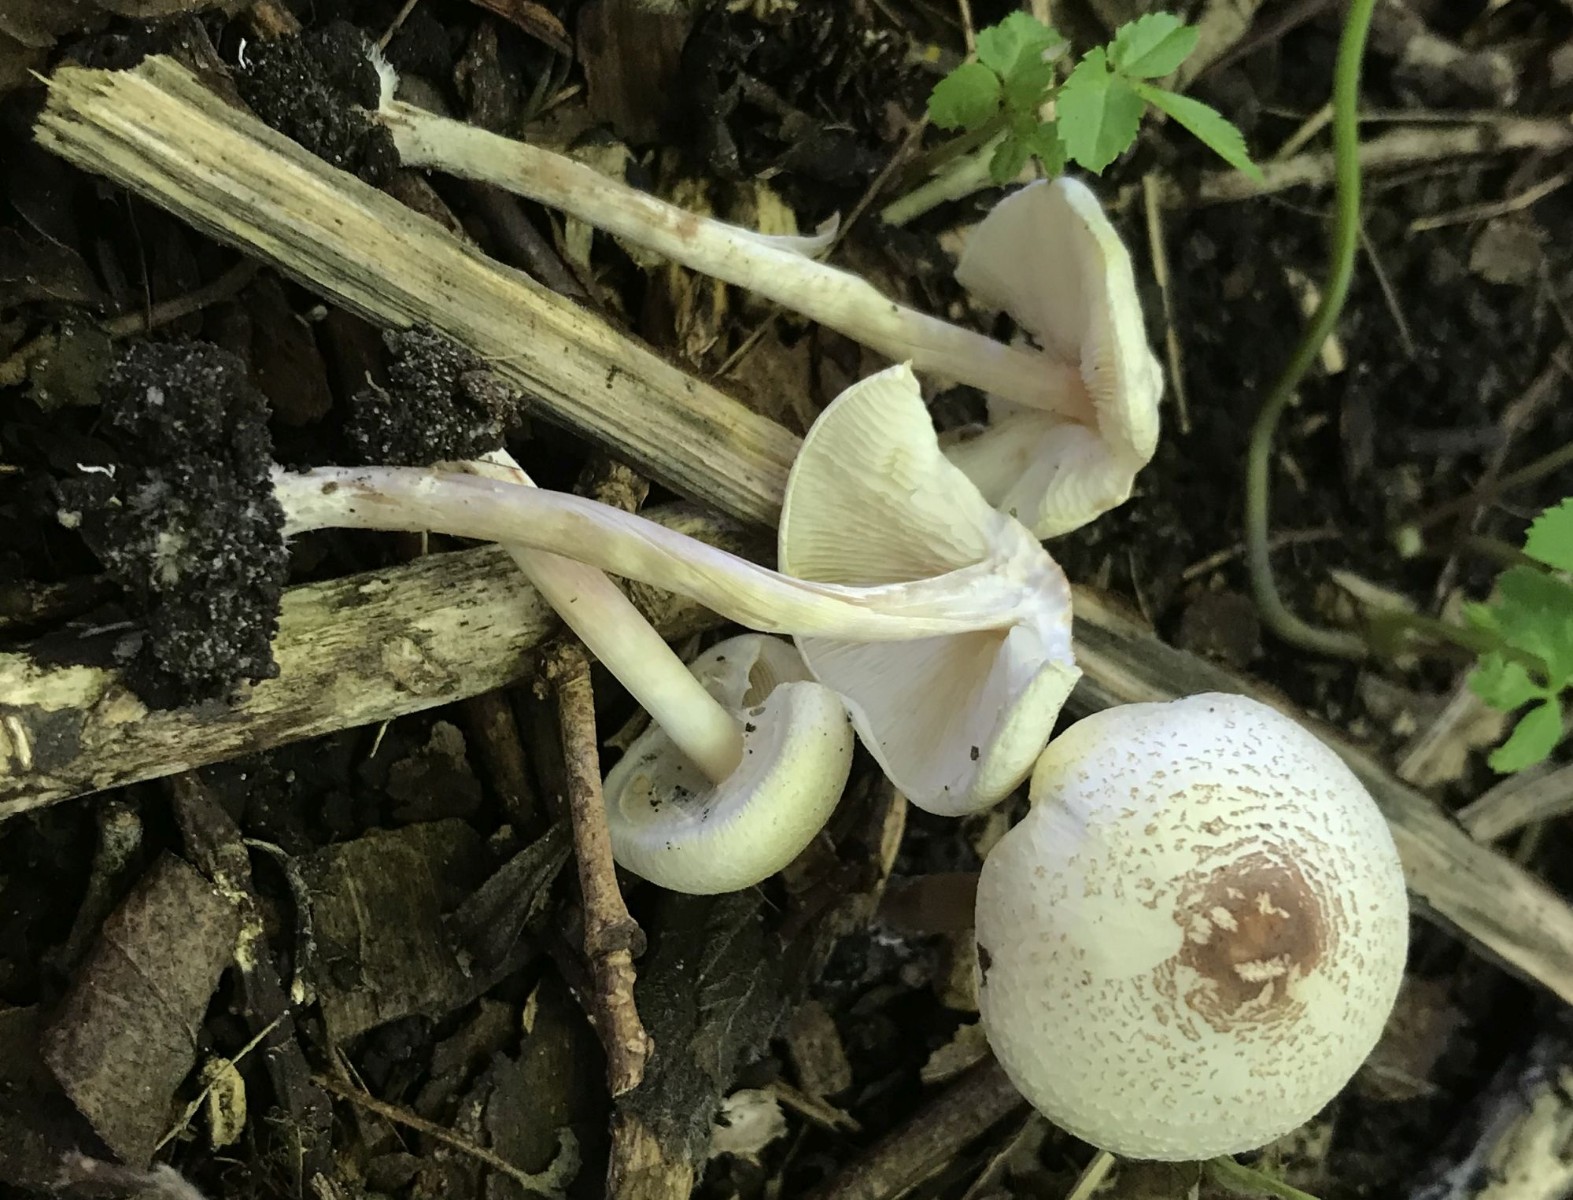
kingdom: Fungi
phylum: Basidiomycota
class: Agaricomycetes
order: Agaricales
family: Agaricaceae
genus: Lepiota
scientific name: Lepiota cristata
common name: stinkende parasolhat
